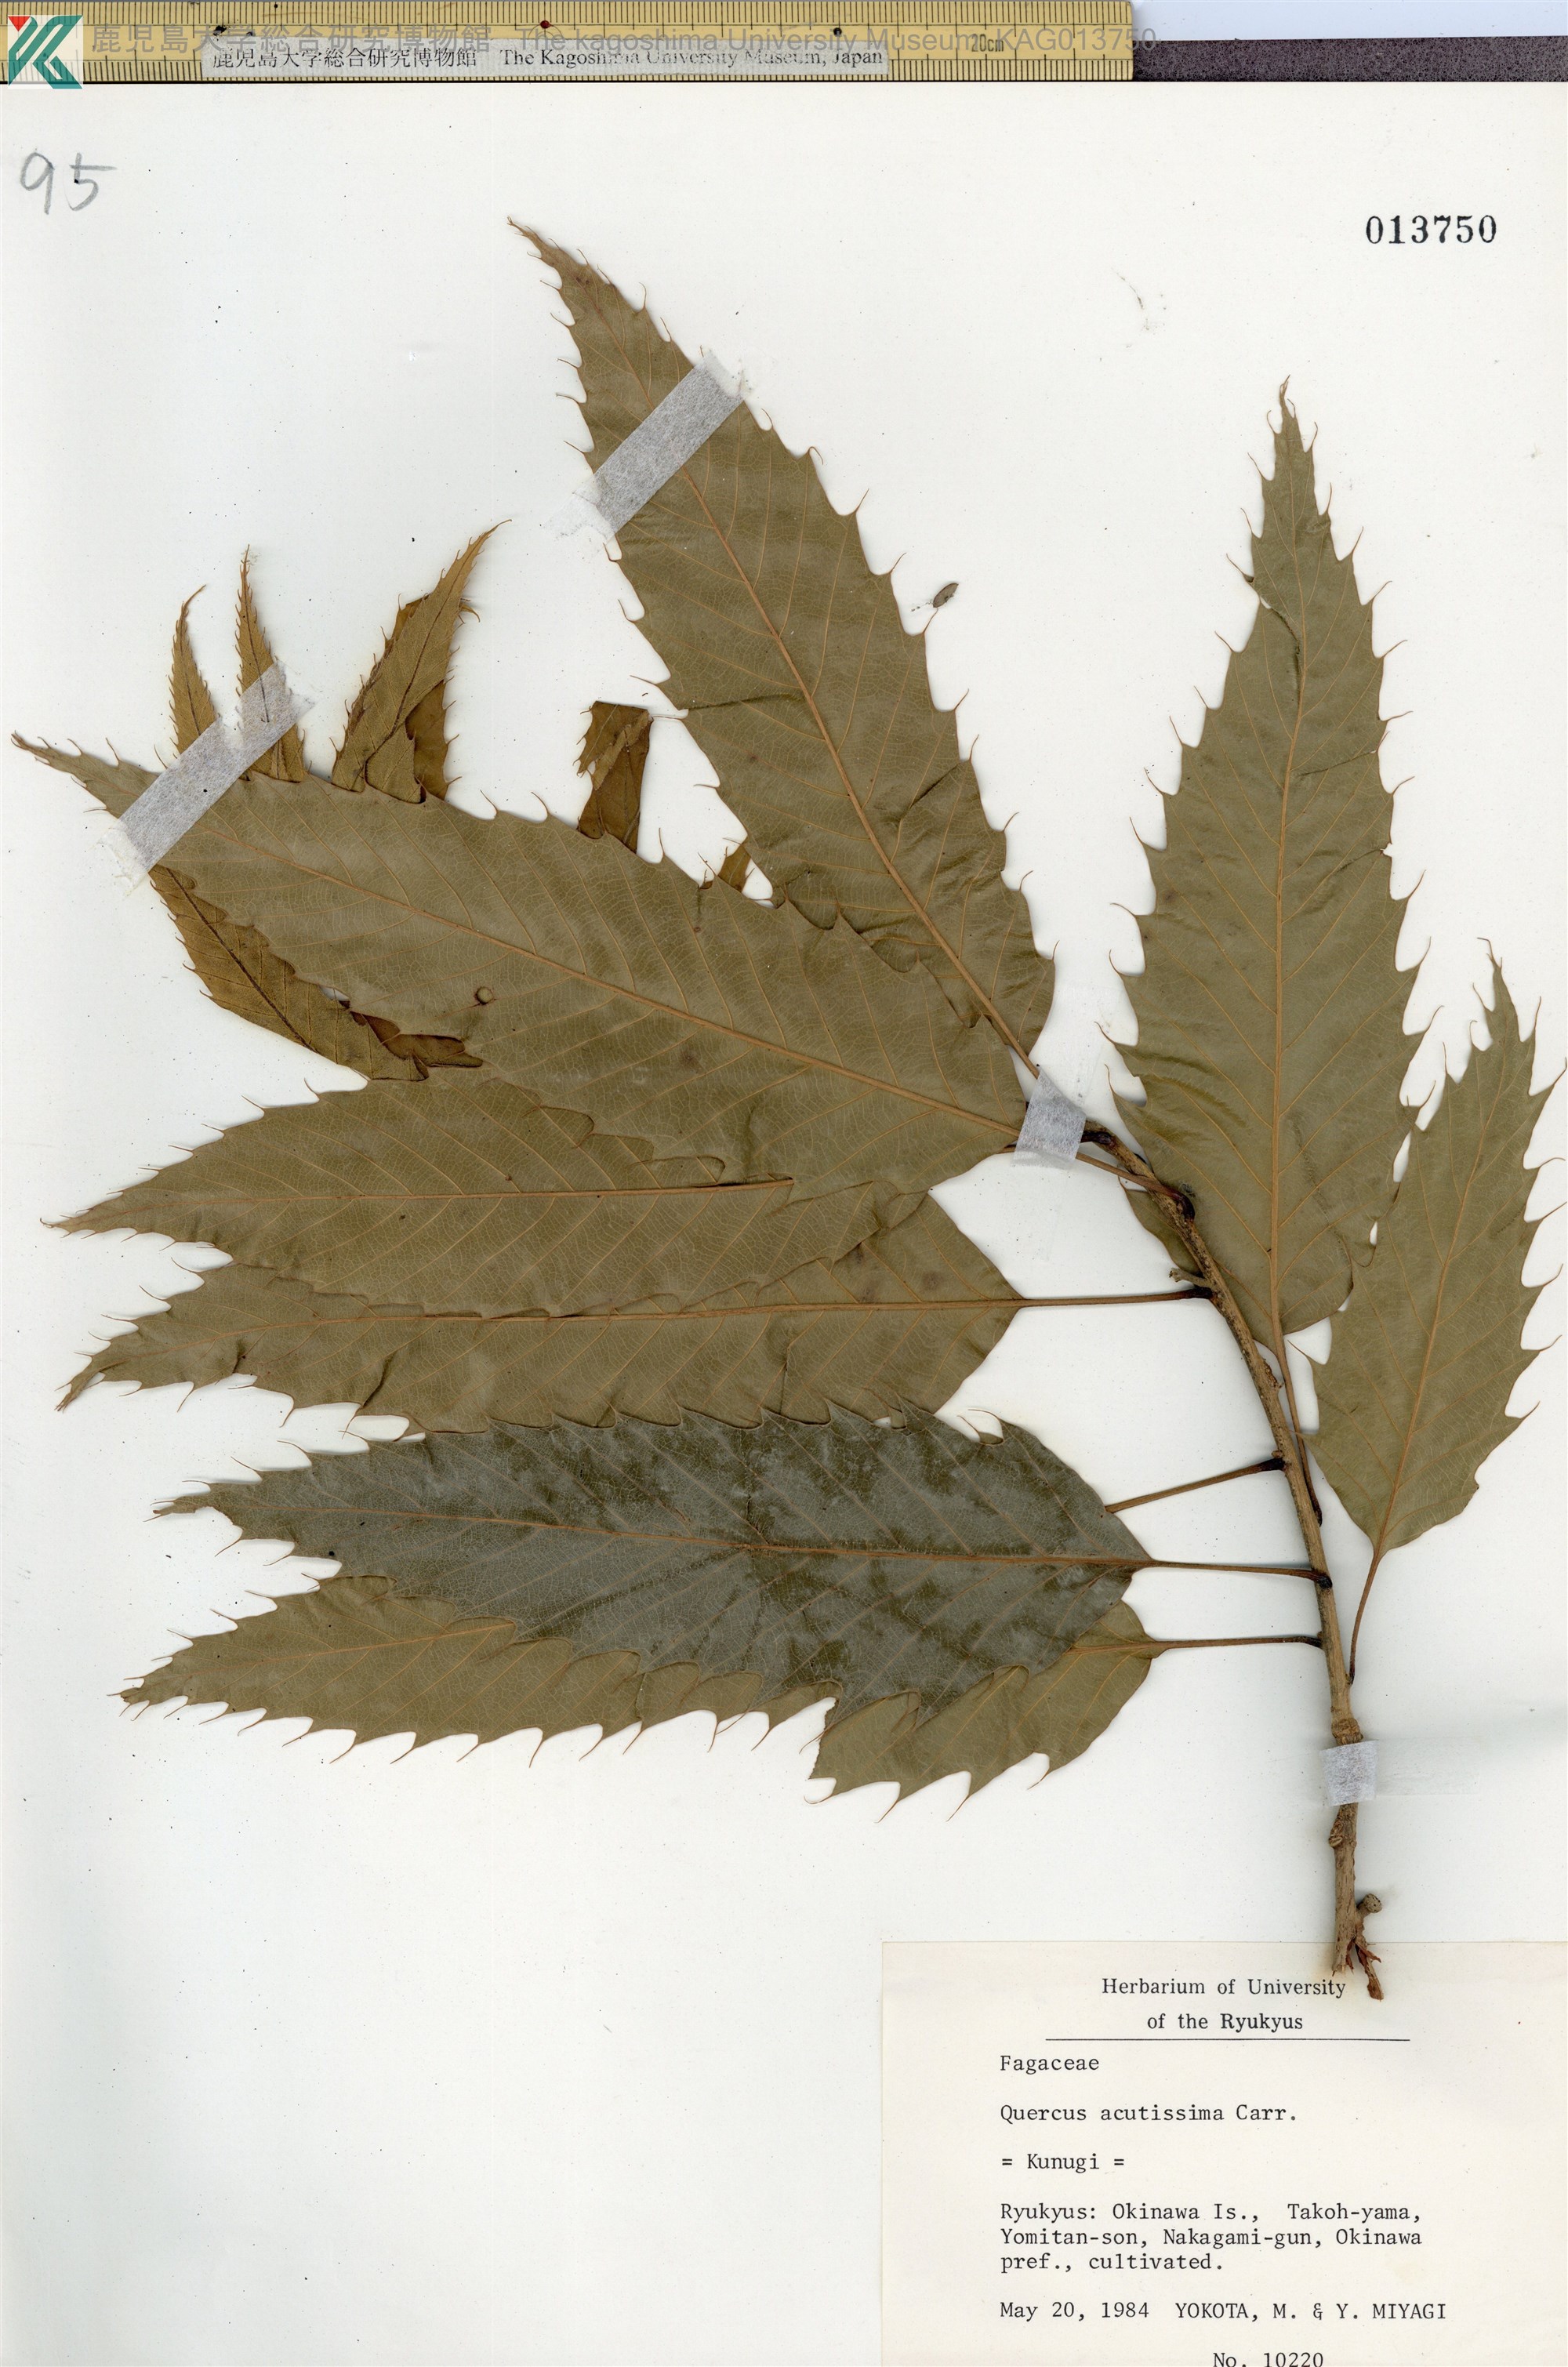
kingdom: Plantae
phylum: Tracheophyta
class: Magnoliopsida
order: Fagales
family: Fagaceae
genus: Quercus
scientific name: Quercus acutissima
